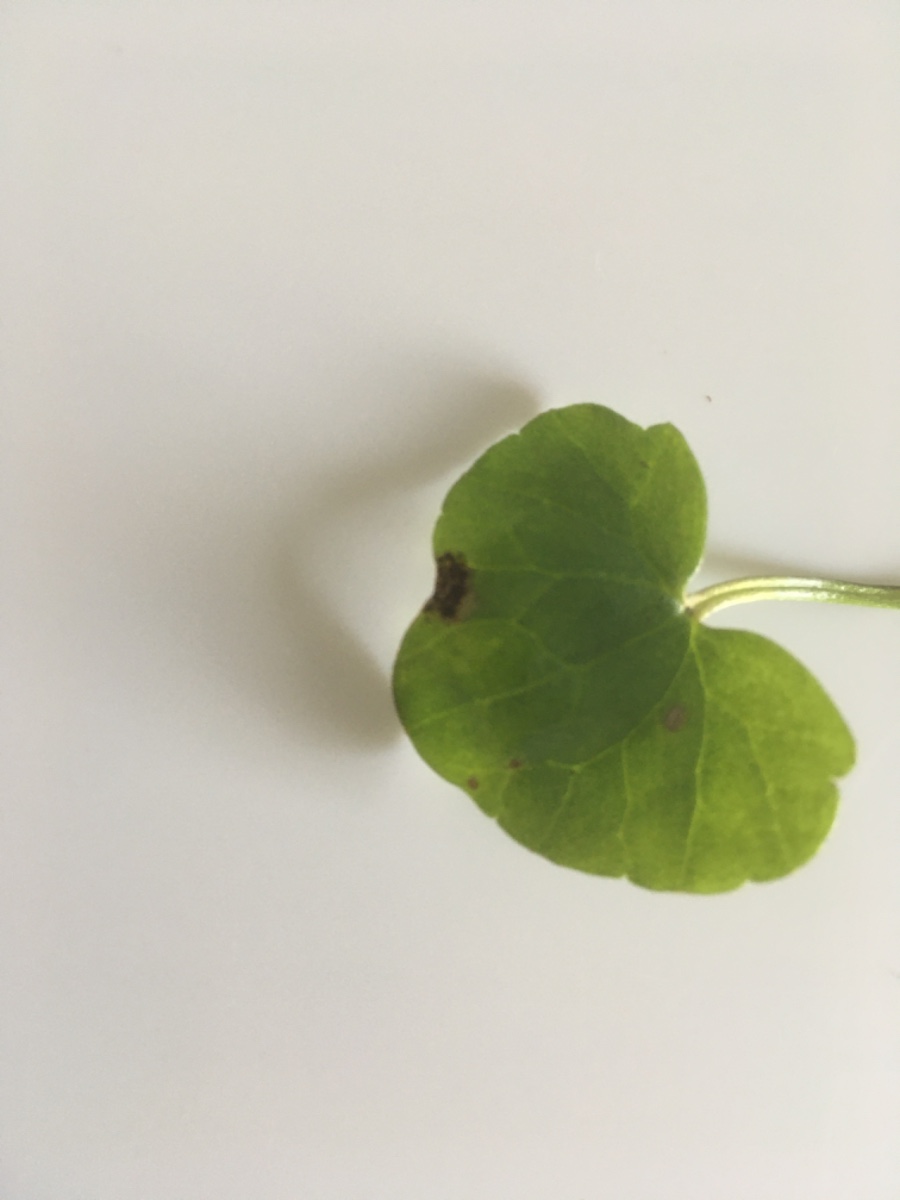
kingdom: Fungi
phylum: Basidiomycota
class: Pucciniomycetes
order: Pucciniales
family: Pucciniaceae
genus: Uromyces
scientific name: Uromyces ficariae
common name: vorterod-encellerust
